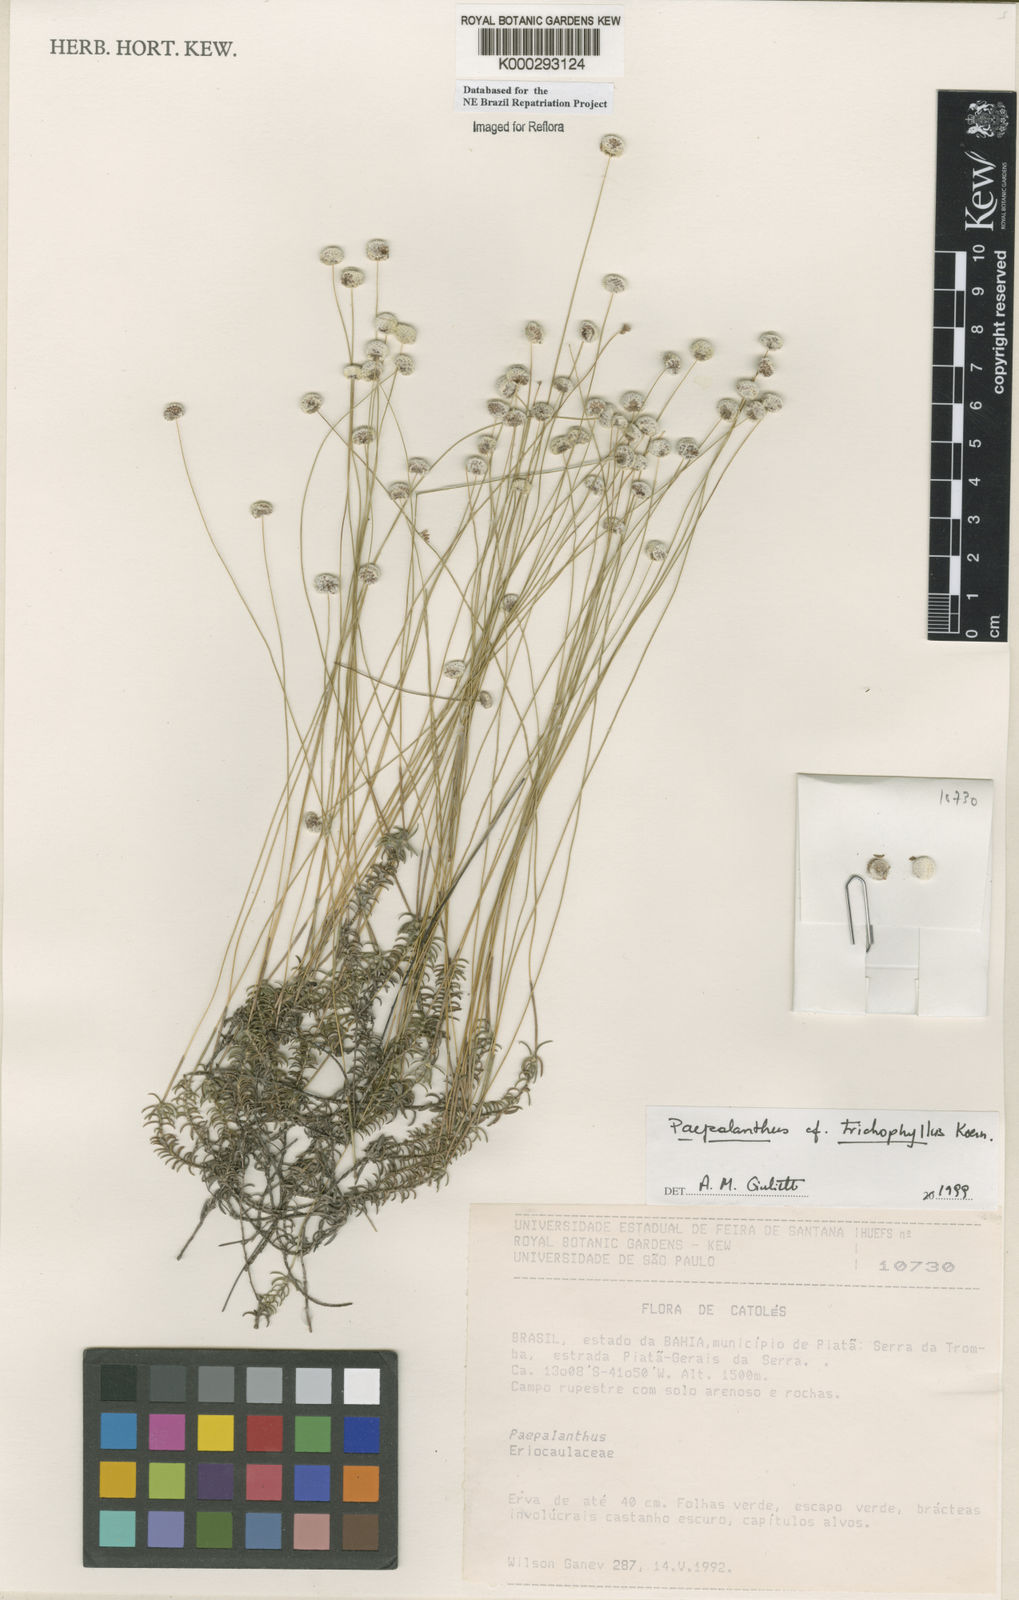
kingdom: Plantae
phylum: Tracheophyta
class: Liliopsida
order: Poales
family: Eriocaulaceae
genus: Paepalanthus
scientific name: Paepalanthus
